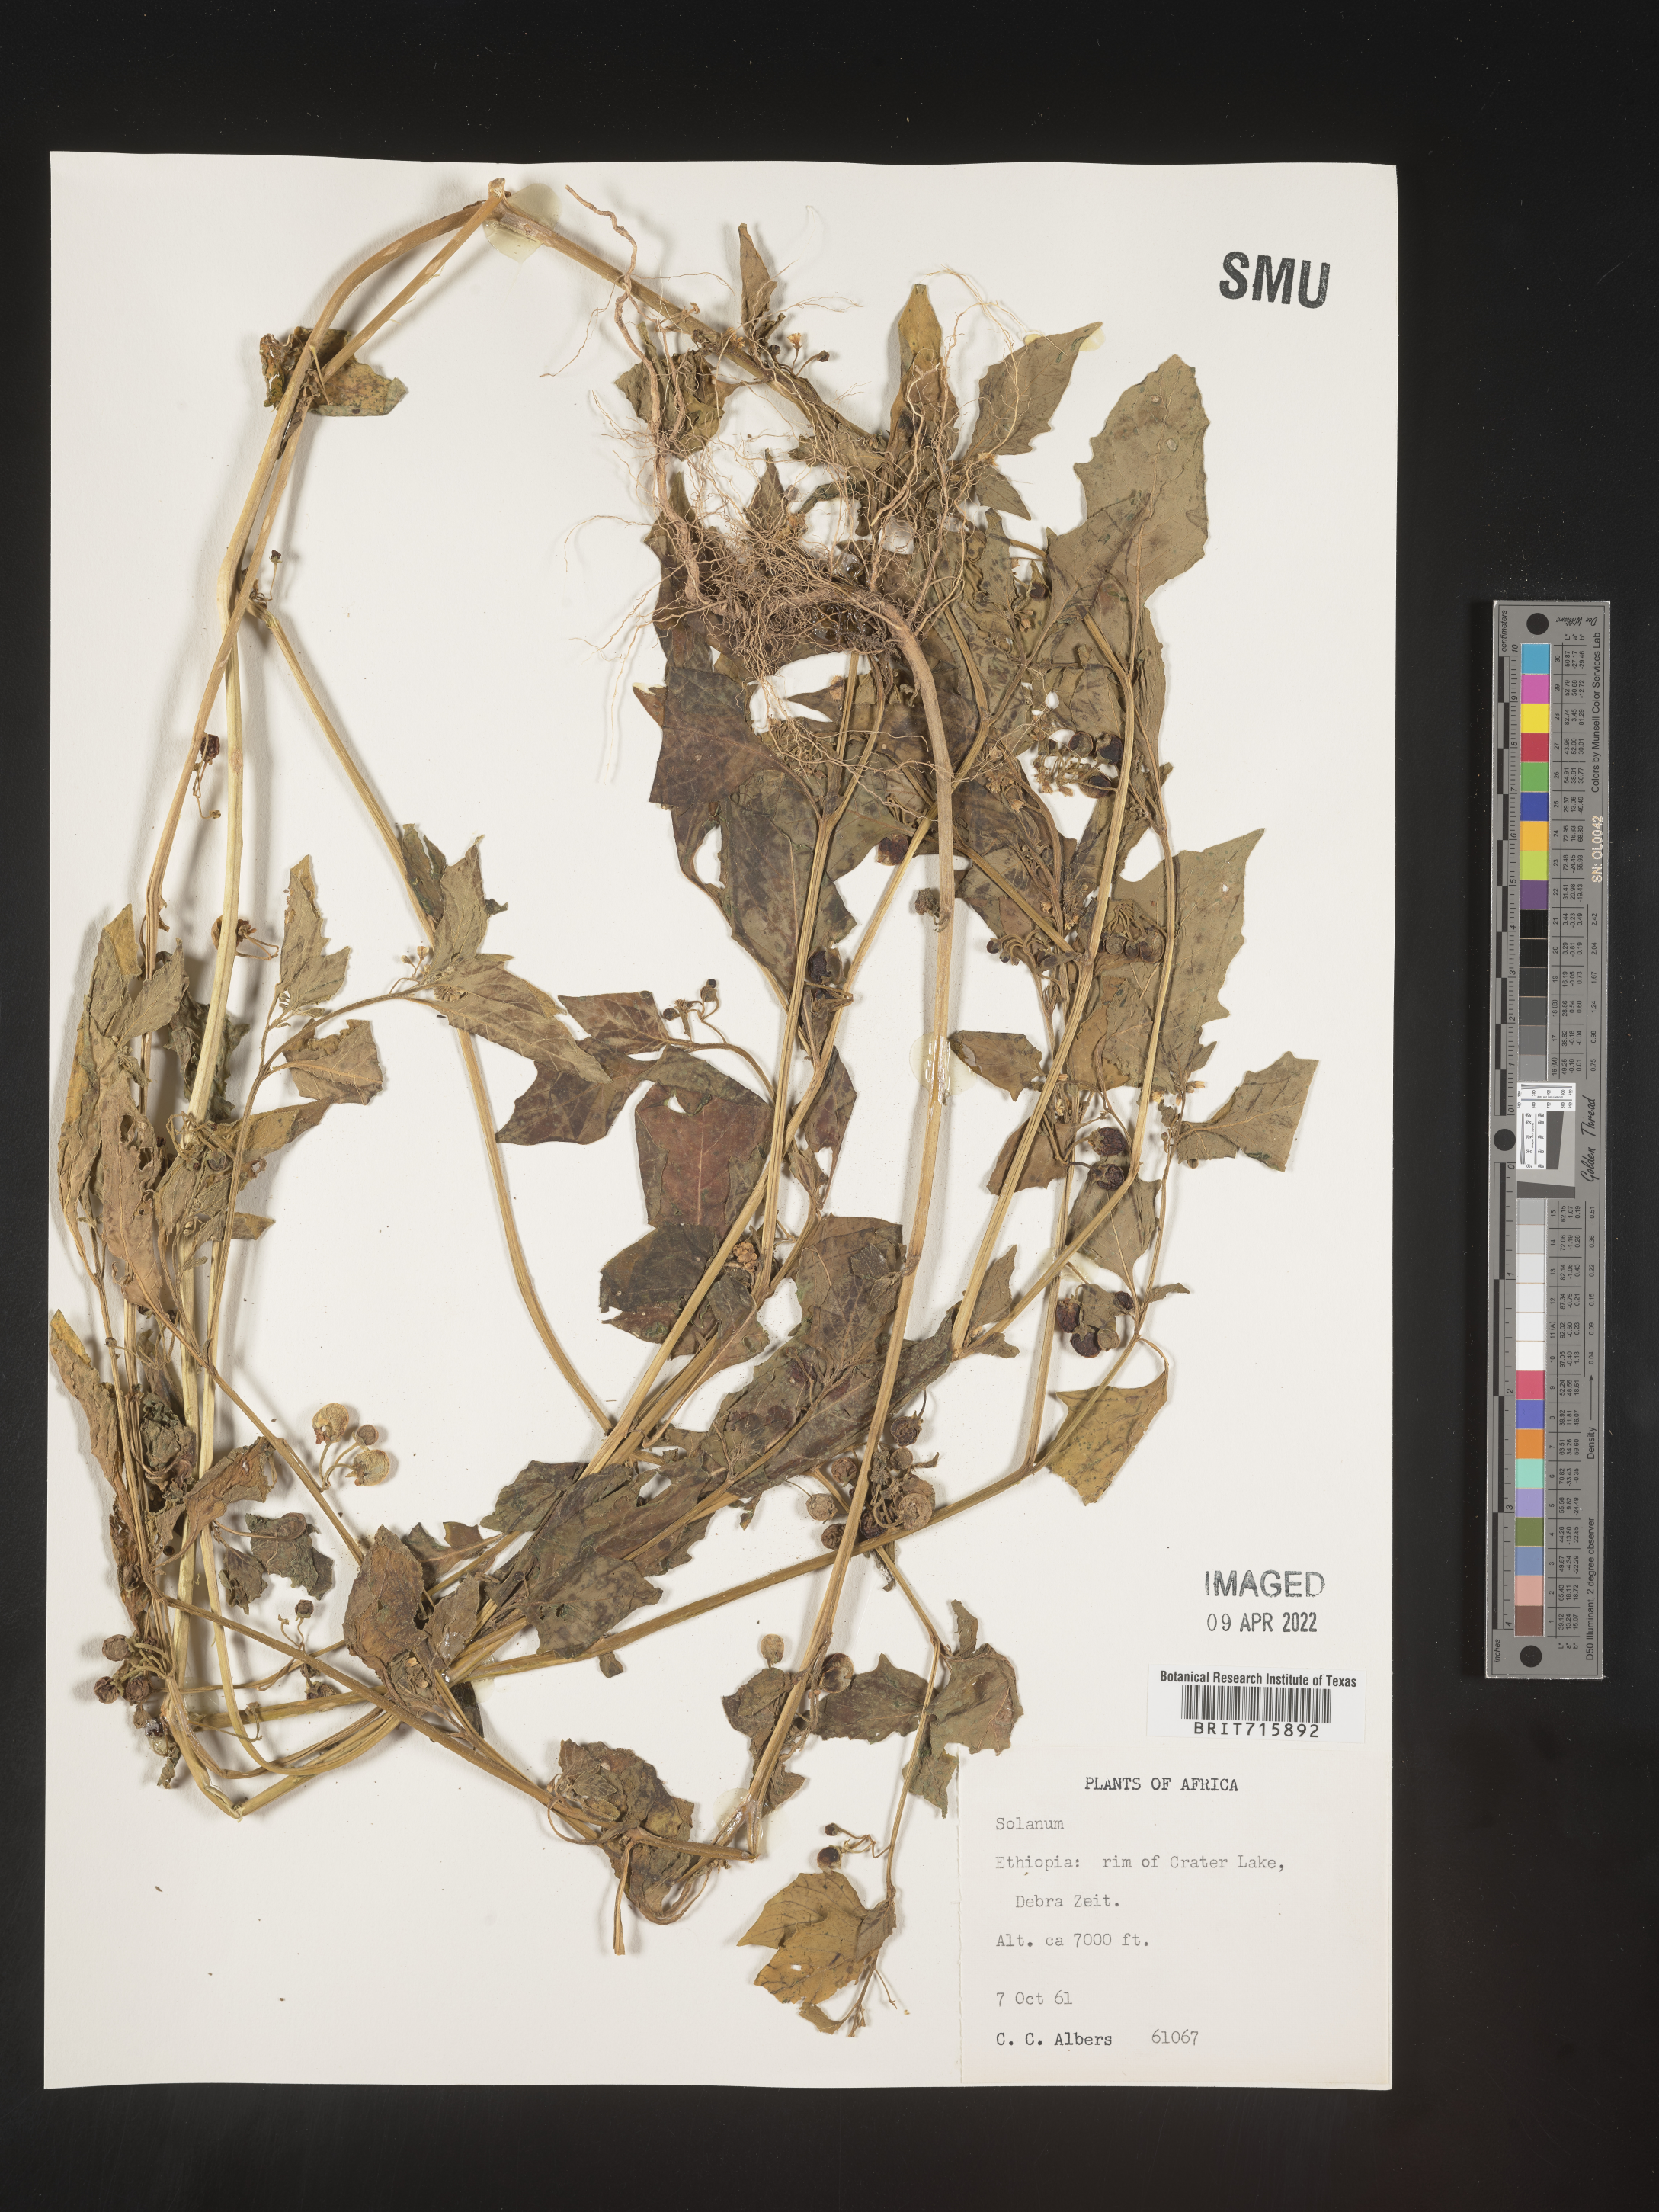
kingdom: Plantae
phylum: Tracheophyta
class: Magnoliopsida
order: Solanales
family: Solanaceae
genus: Solanum
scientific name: Solanum
